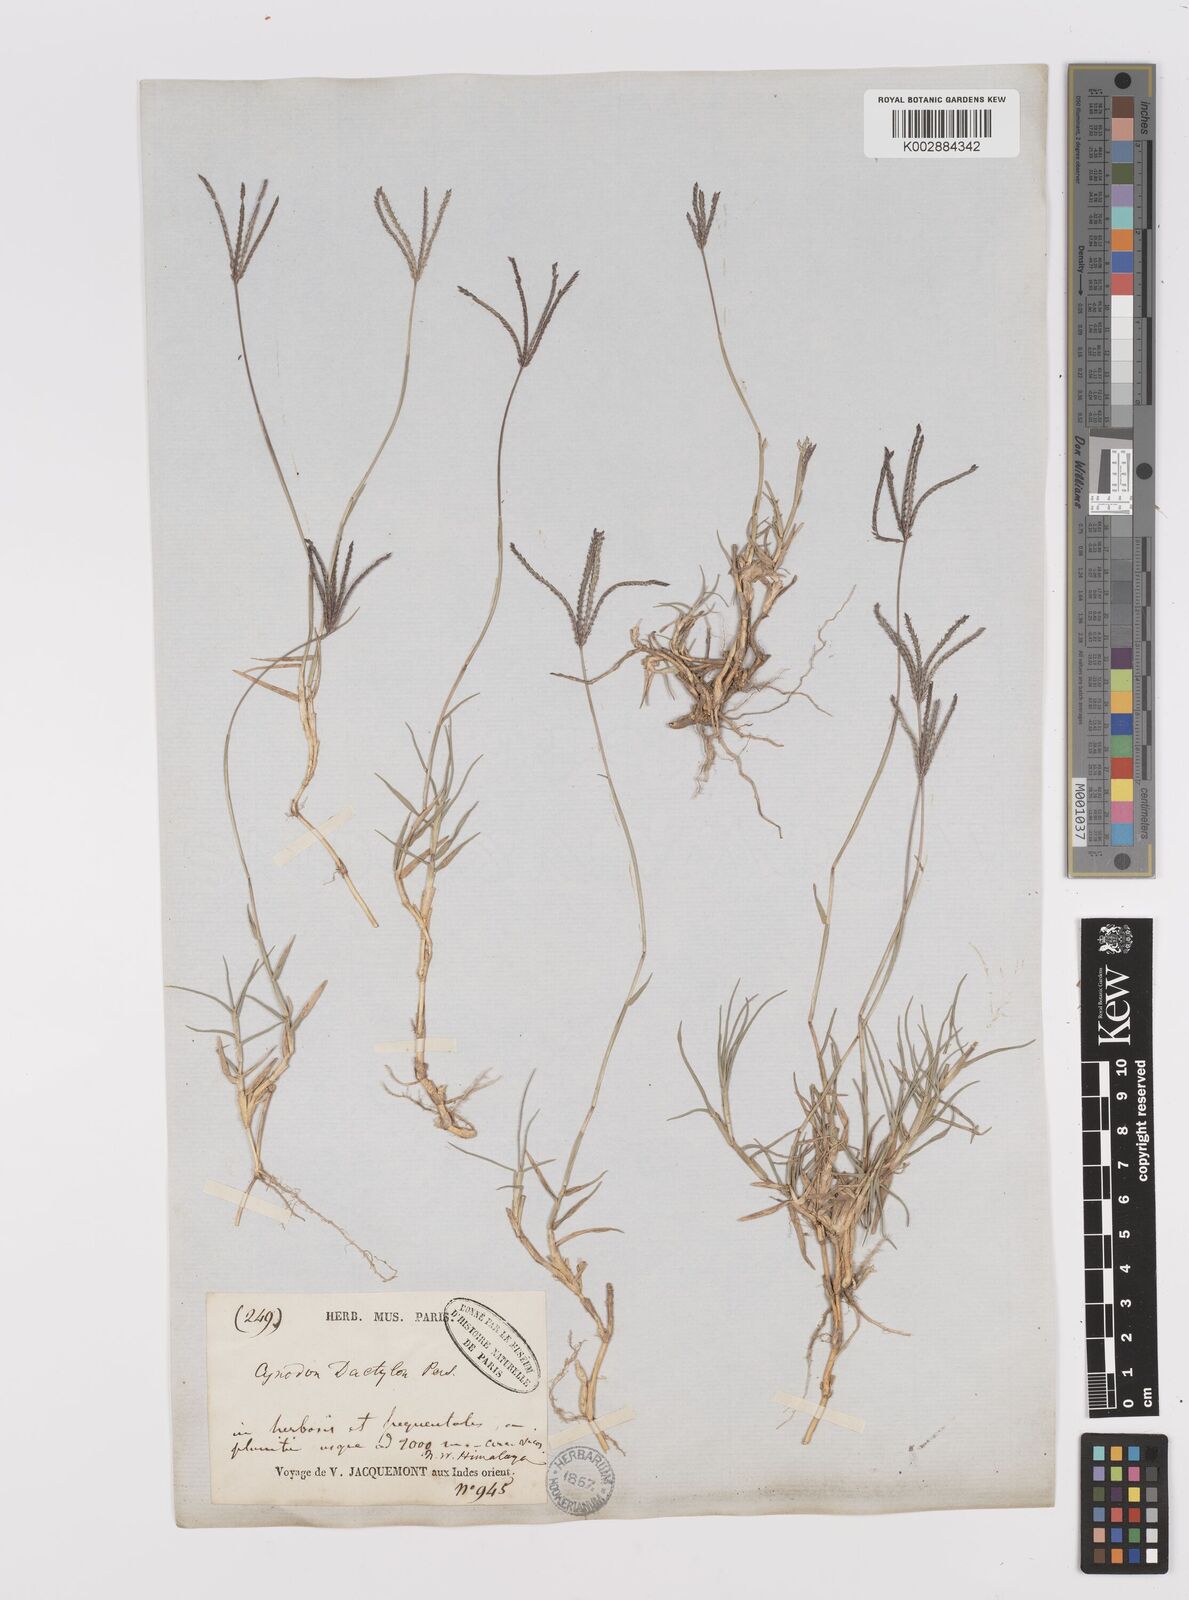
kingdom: Plantae
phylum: Tracheophyta
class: Liliopsida
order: Poales
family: Poaceae
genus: Cynodon
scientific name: Cynodon dactylon
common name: Bermuda grass
